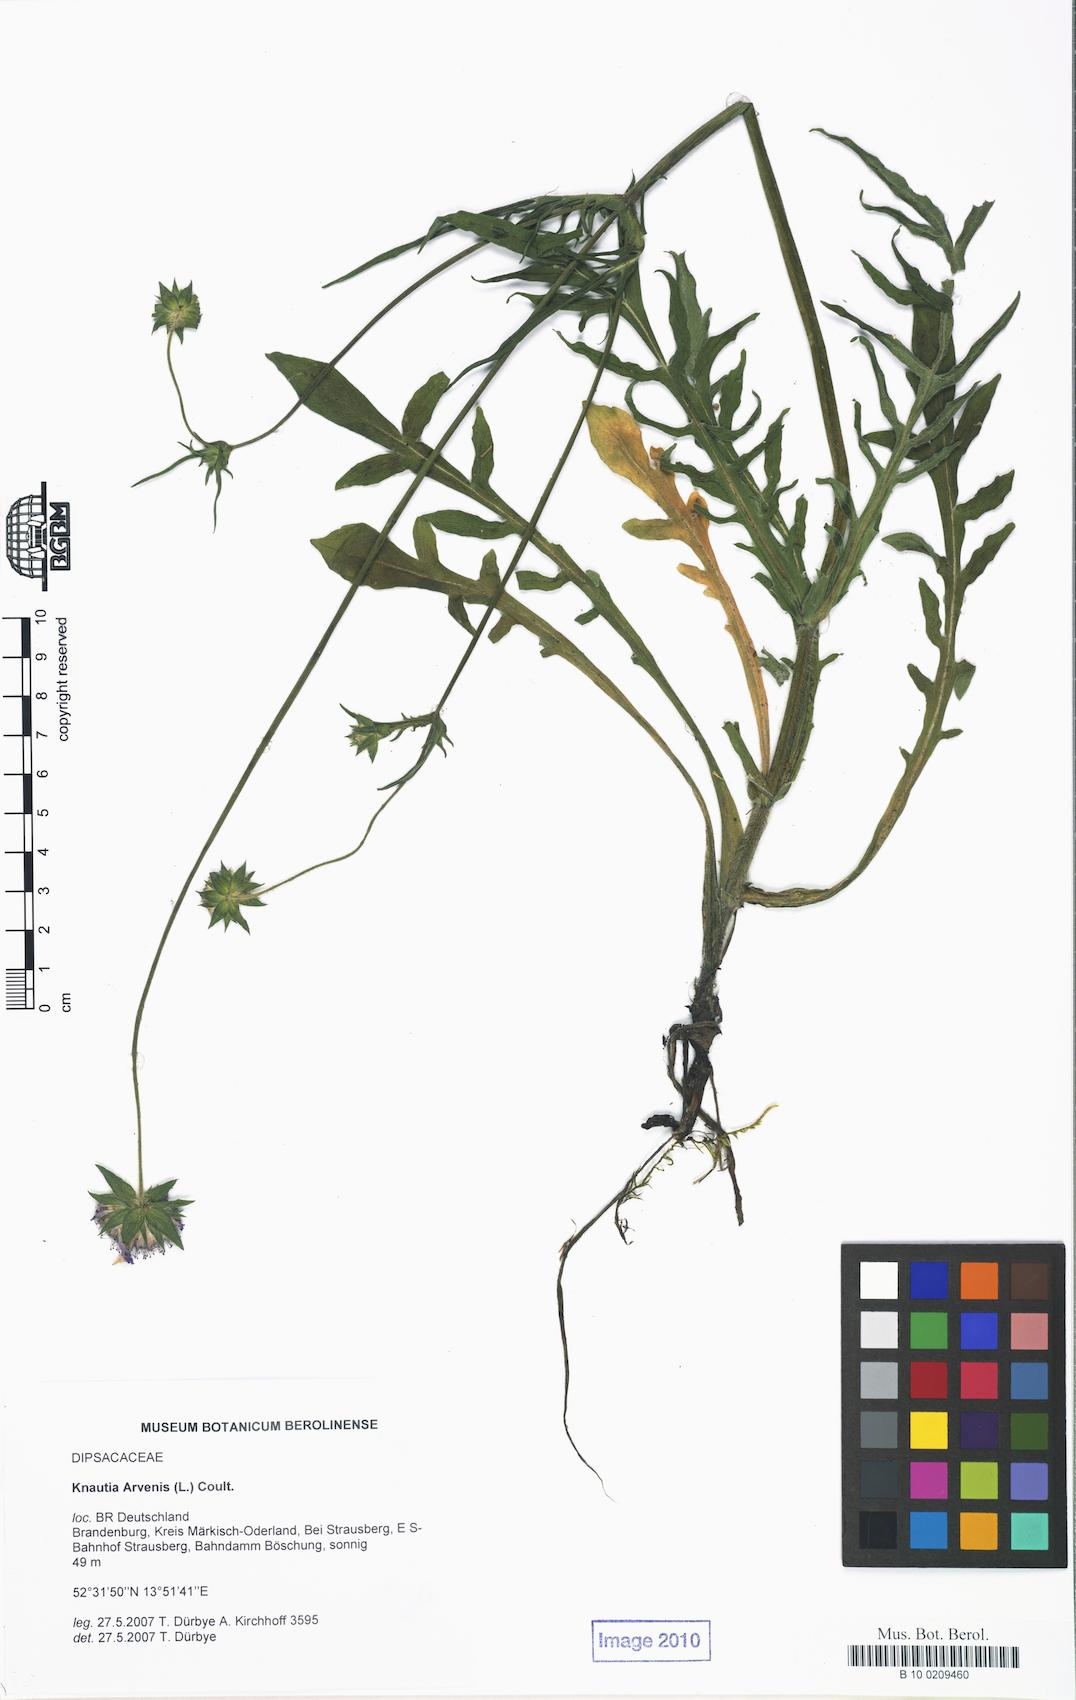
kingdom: Plantae
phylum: Tracheophyta
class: Magnoliopsida
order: Dipsacales
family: Caprifoliaceae
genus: Knautia
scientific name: Knautia arvensis
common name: Field scabiosa
